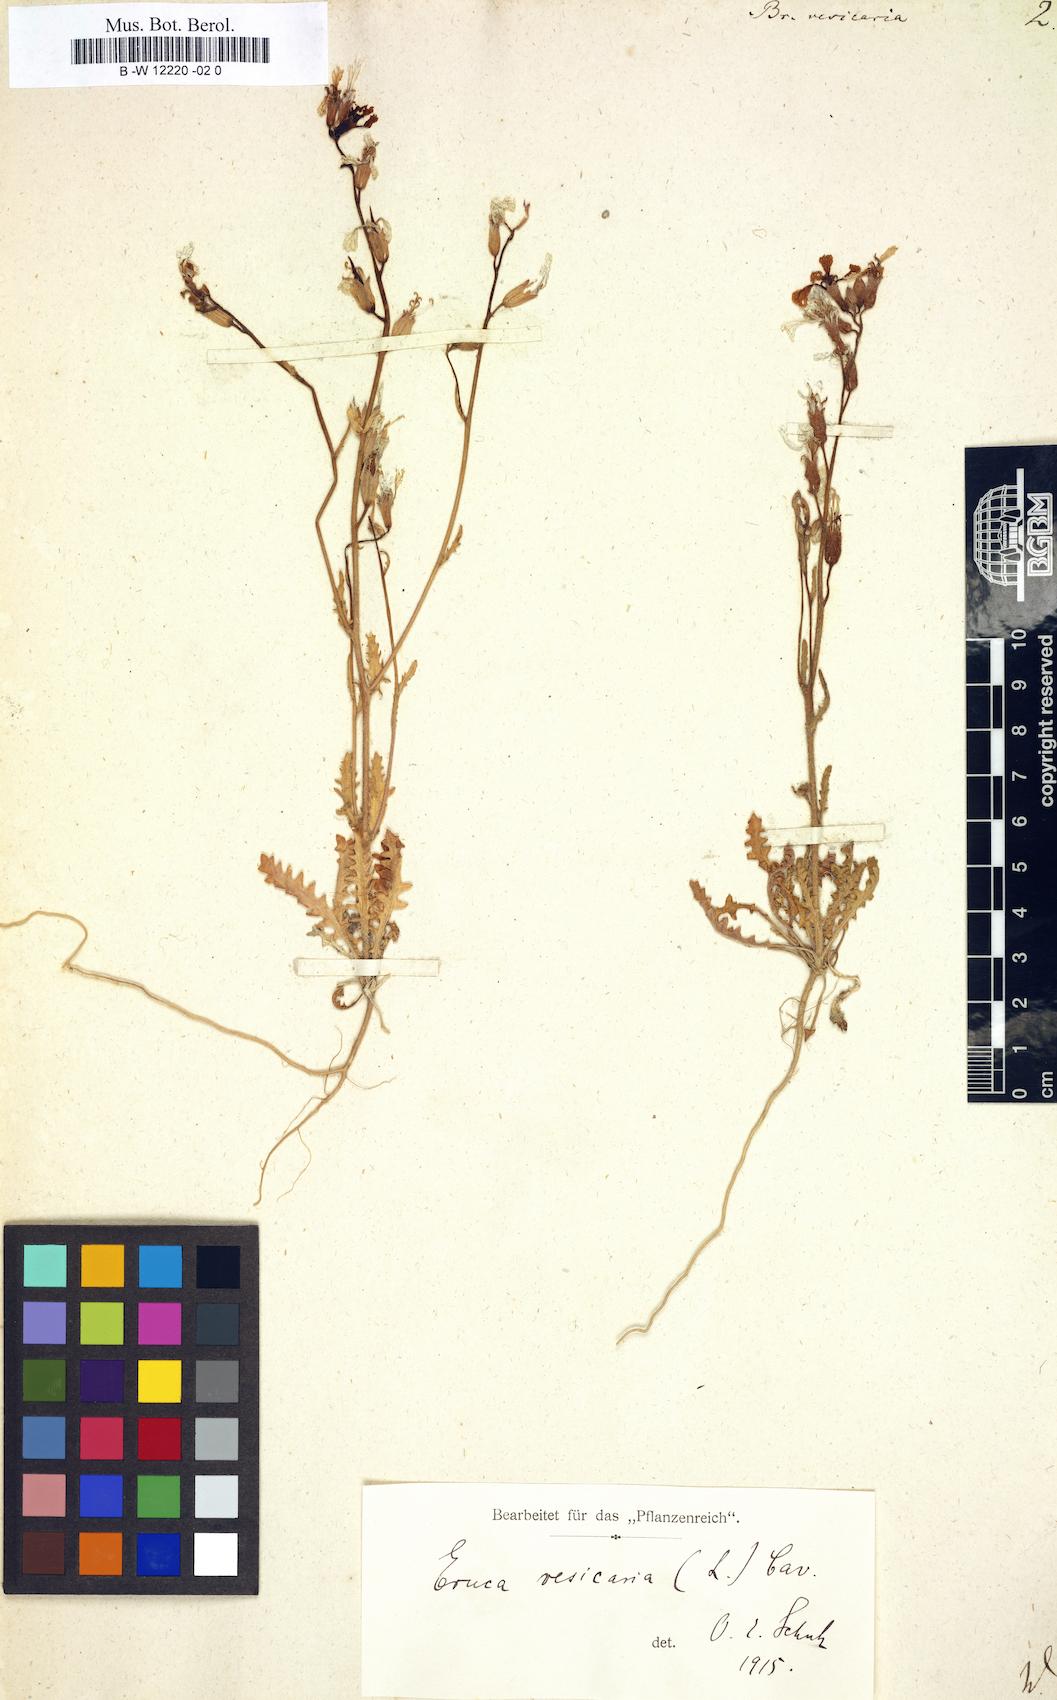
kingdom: Plantae
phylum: Tracheophyta
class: Magnoliopsida
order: Brassicales
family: Brassicaceae
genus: Eruca
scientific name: Eruca vesicaria
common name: Garden rocket
